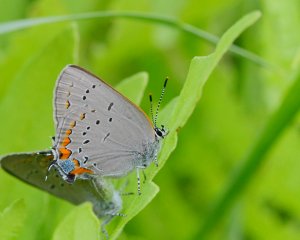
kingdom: Animalia
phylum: Arthropoda
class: Insecta
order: Lepidoptera
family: Lycaenidae
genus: Strymon
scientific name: Strymon acadica
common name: Acadian Hairstreak
